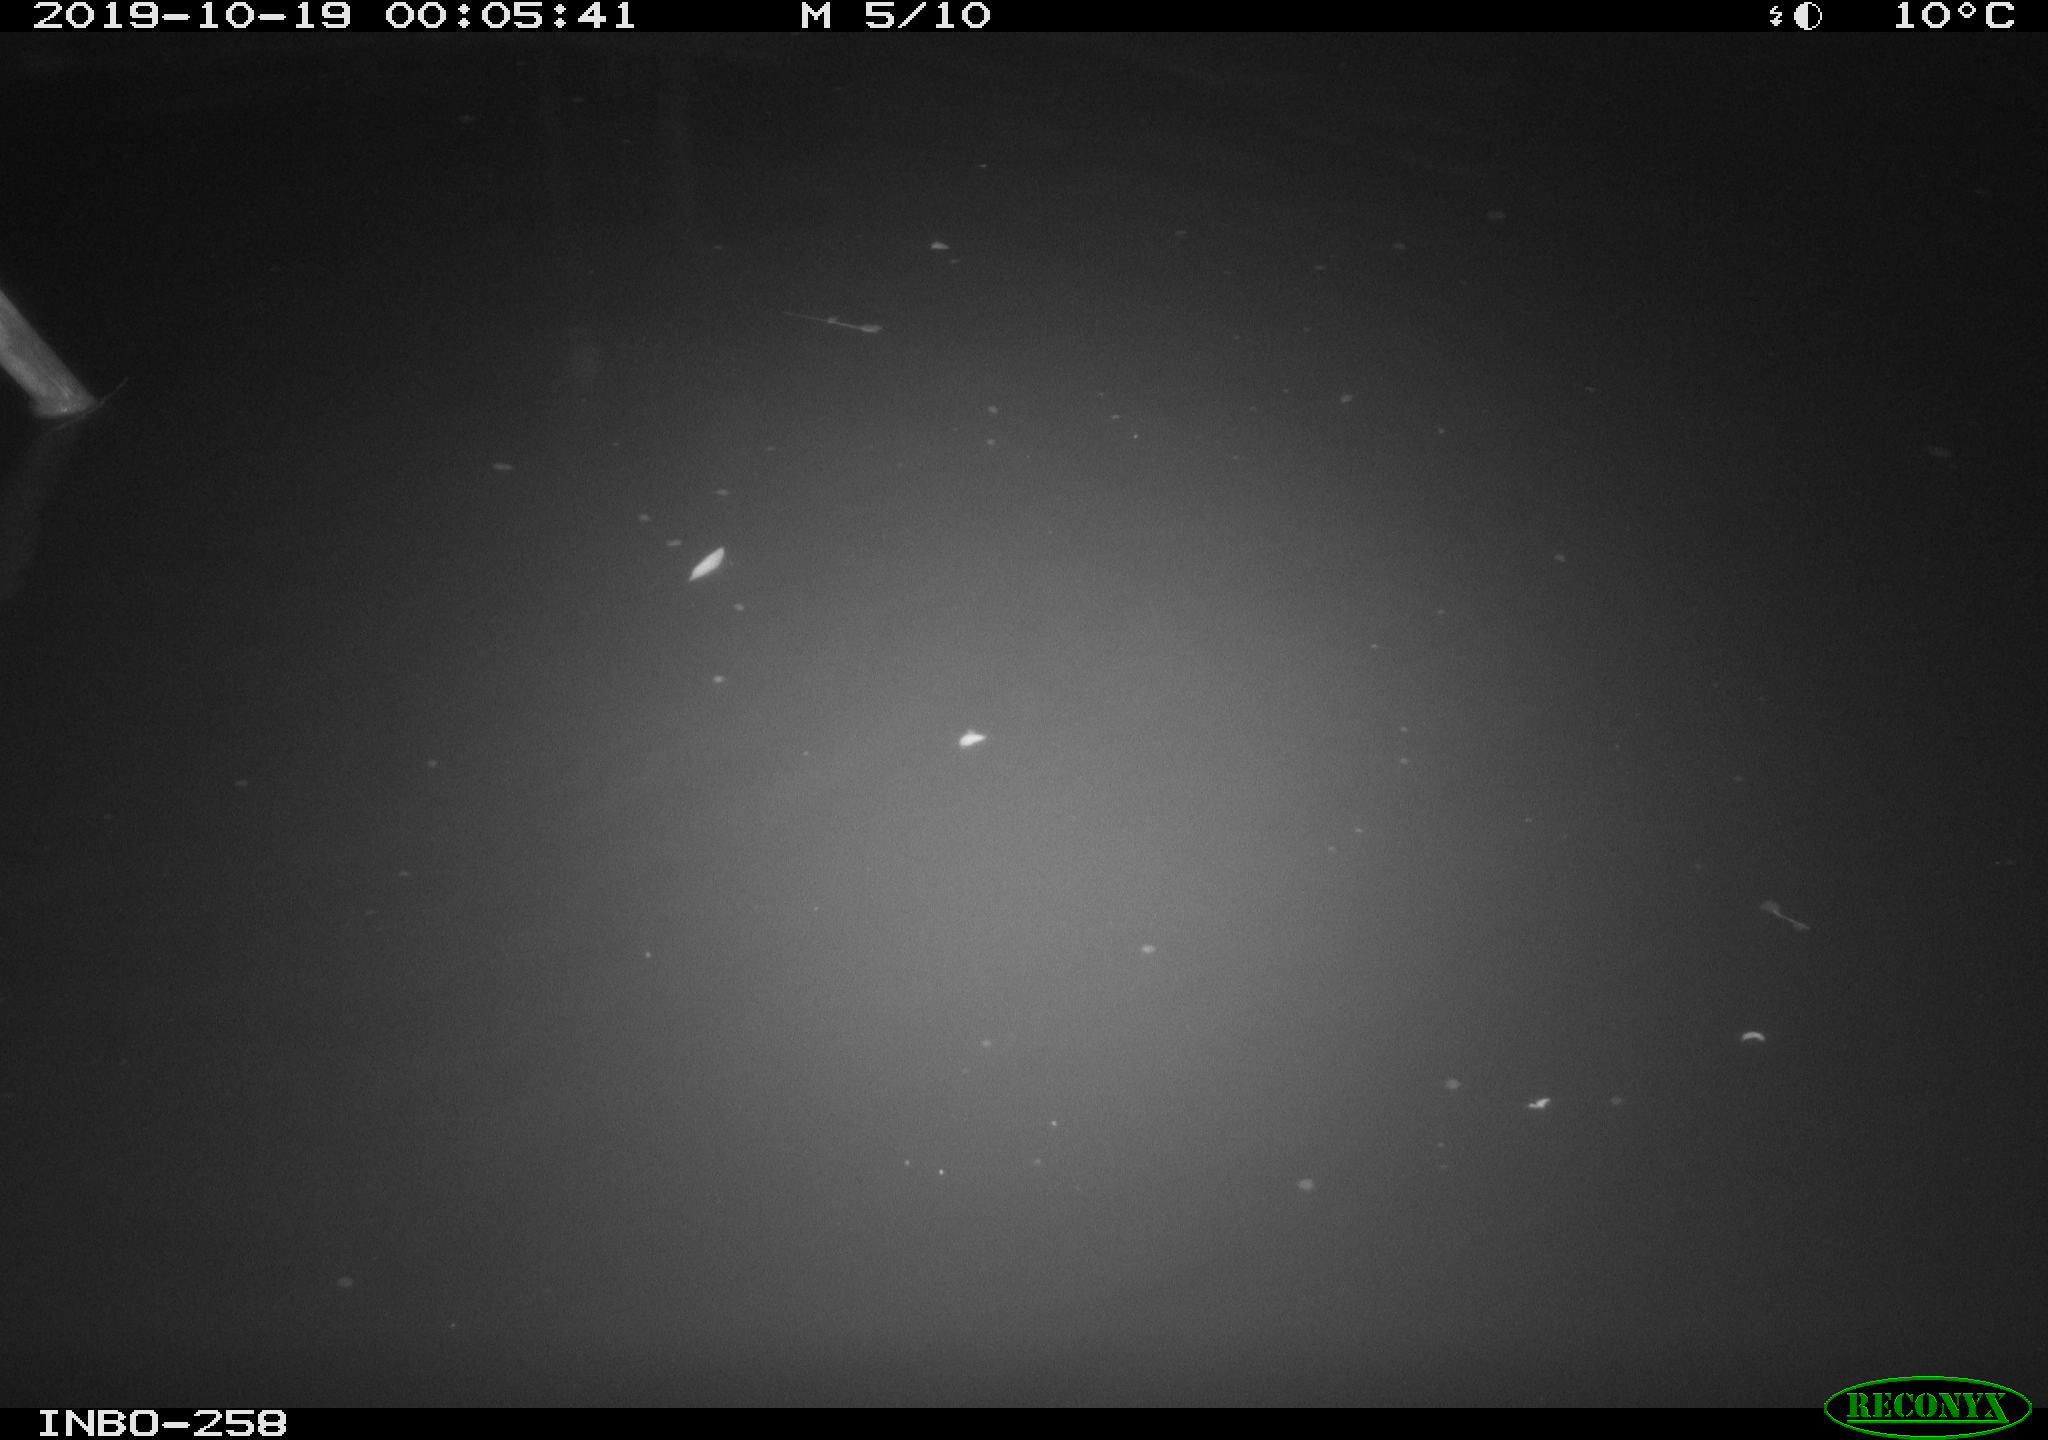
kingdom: Animalia
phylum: Chordata
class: Aves
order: Anseriformes
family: Anatidae
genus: Anas
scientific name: Anas platyrhynchos
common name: Mallard
